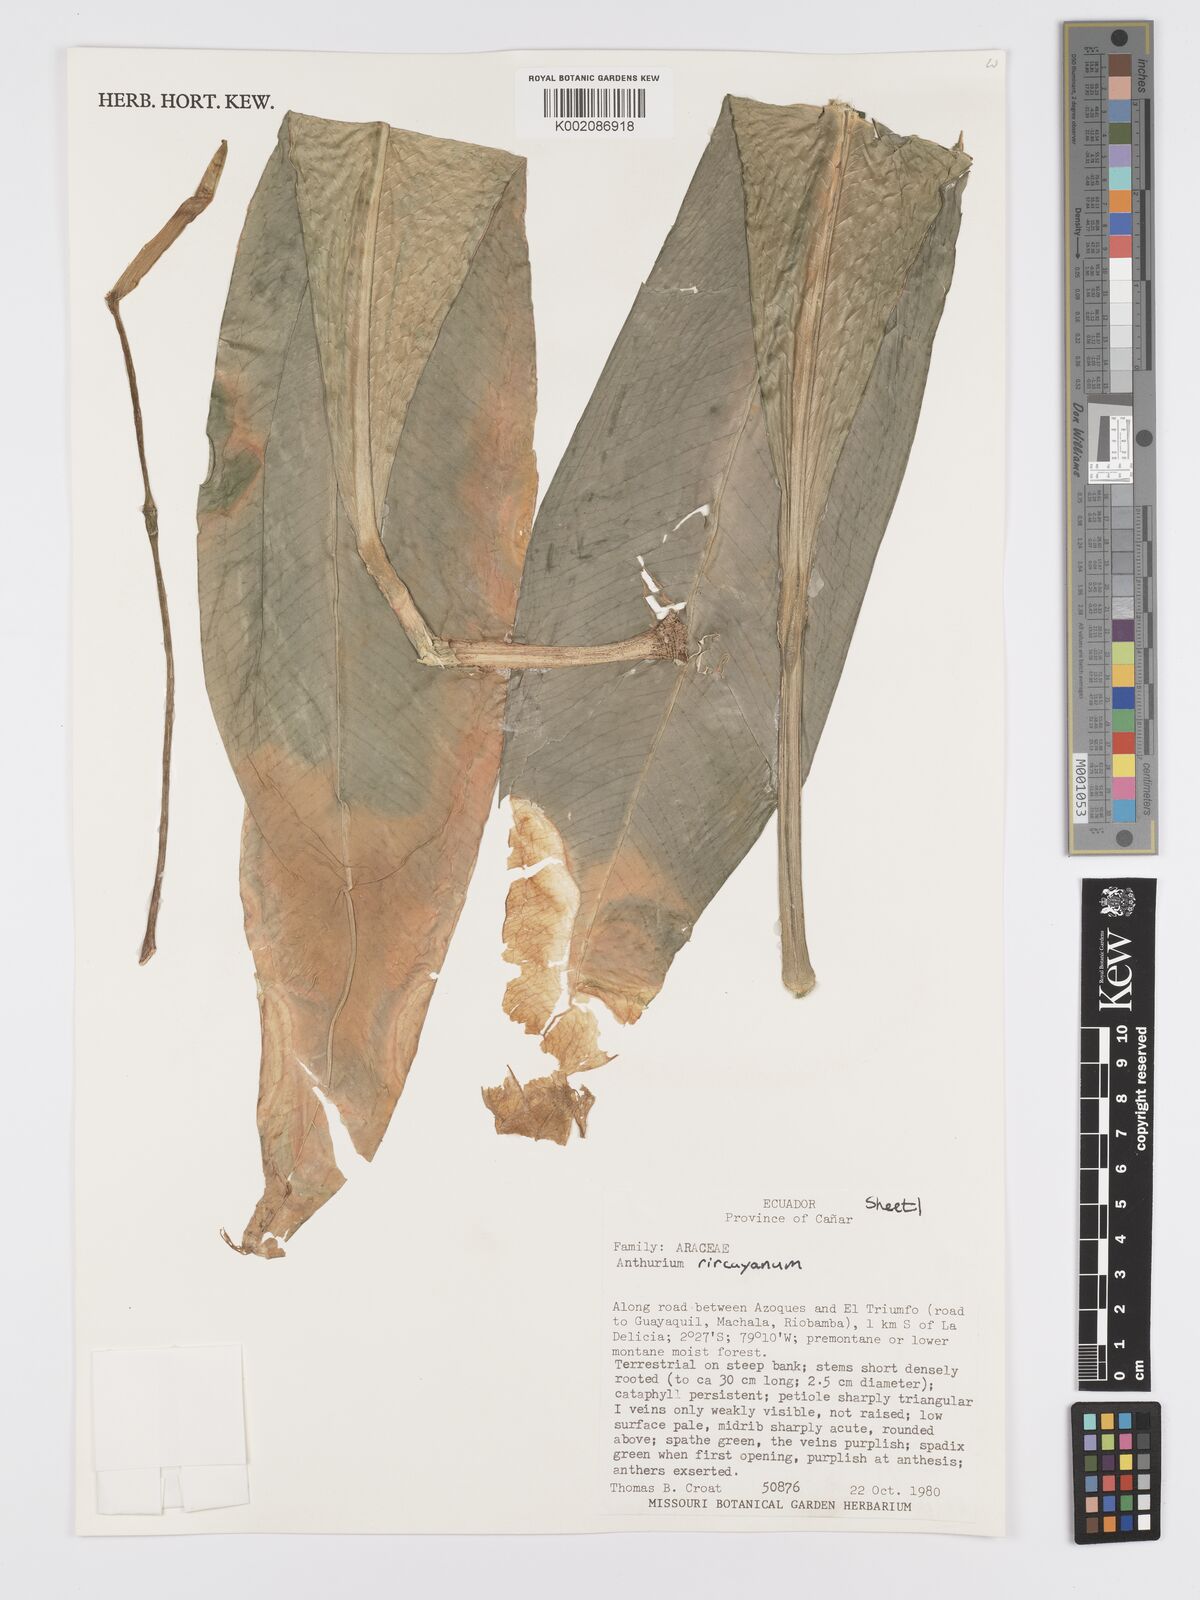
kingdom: Plantae
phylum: Tracheophyta
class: Liliopsida
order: Alismatales
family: Araceae
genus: Anthurium
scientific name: Anthurium napaeum
